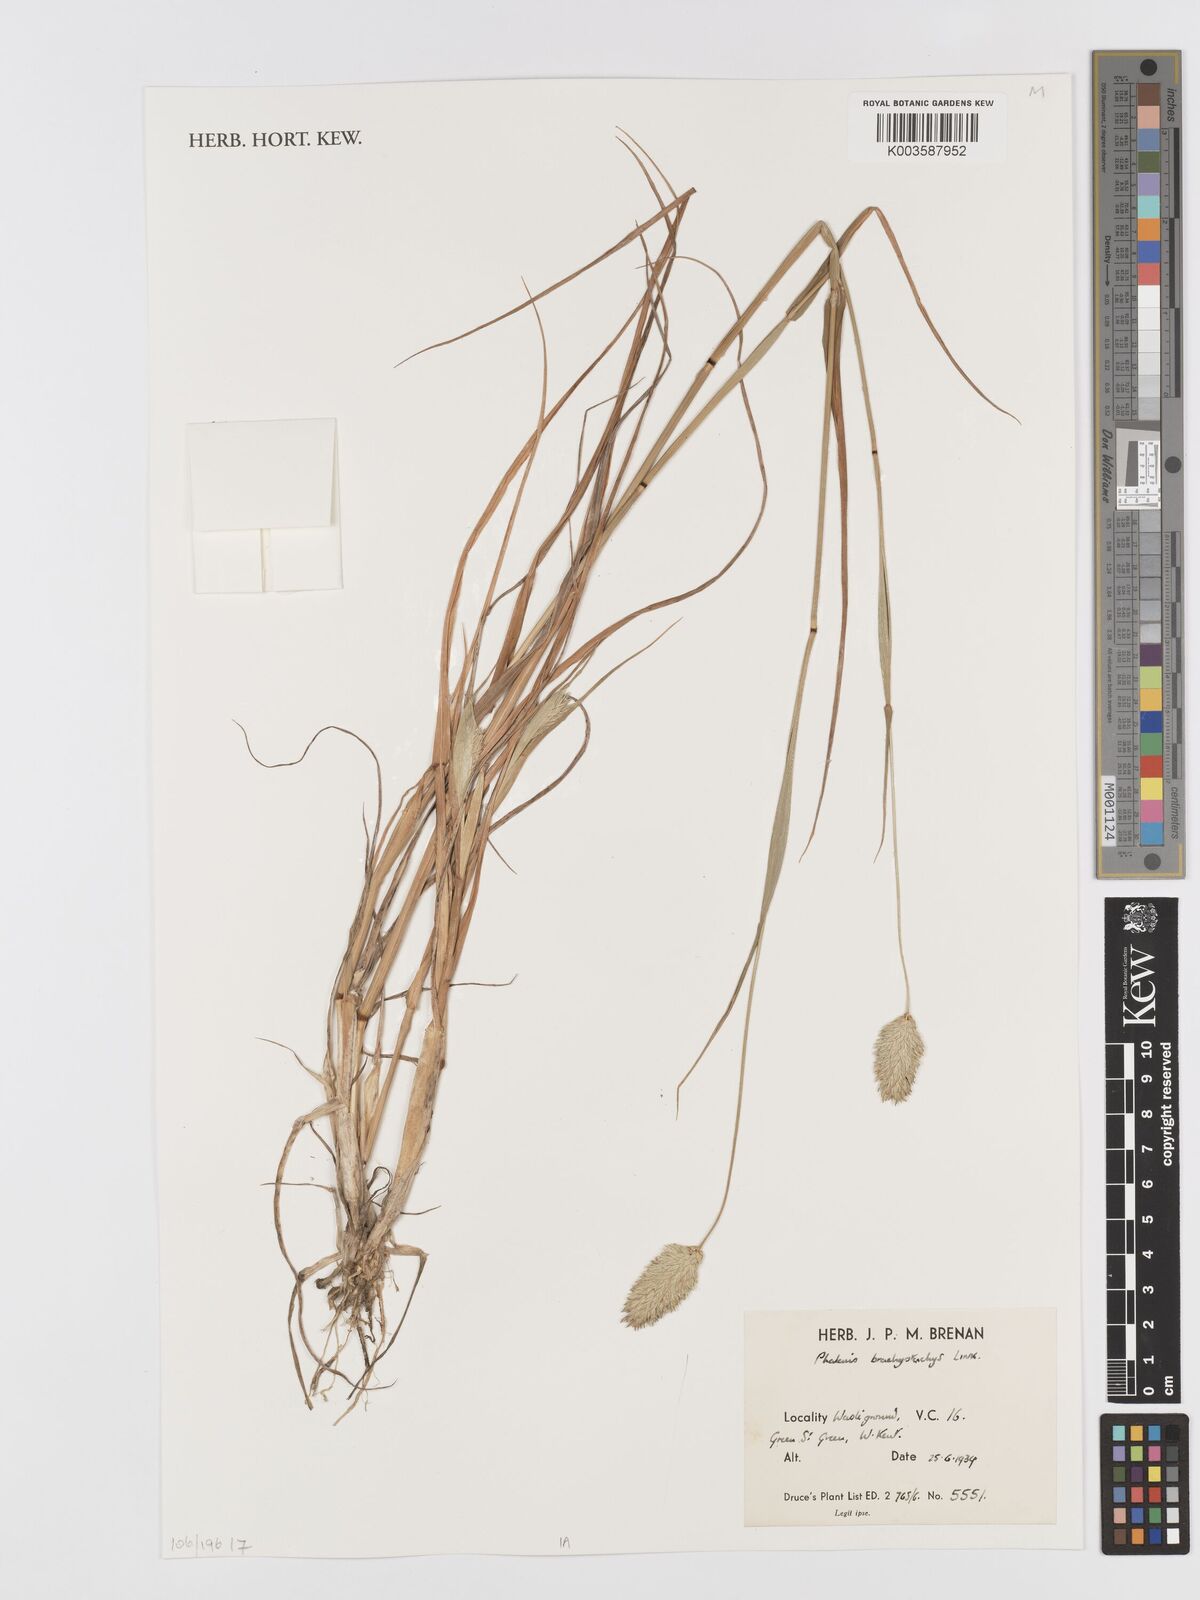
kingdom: Plantae
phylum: Tracheophyta
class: Liliopsida
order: Poales
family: Poaceae
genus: Phalaris
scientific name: Phalaris brachystachys
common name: Confused canary-grass
